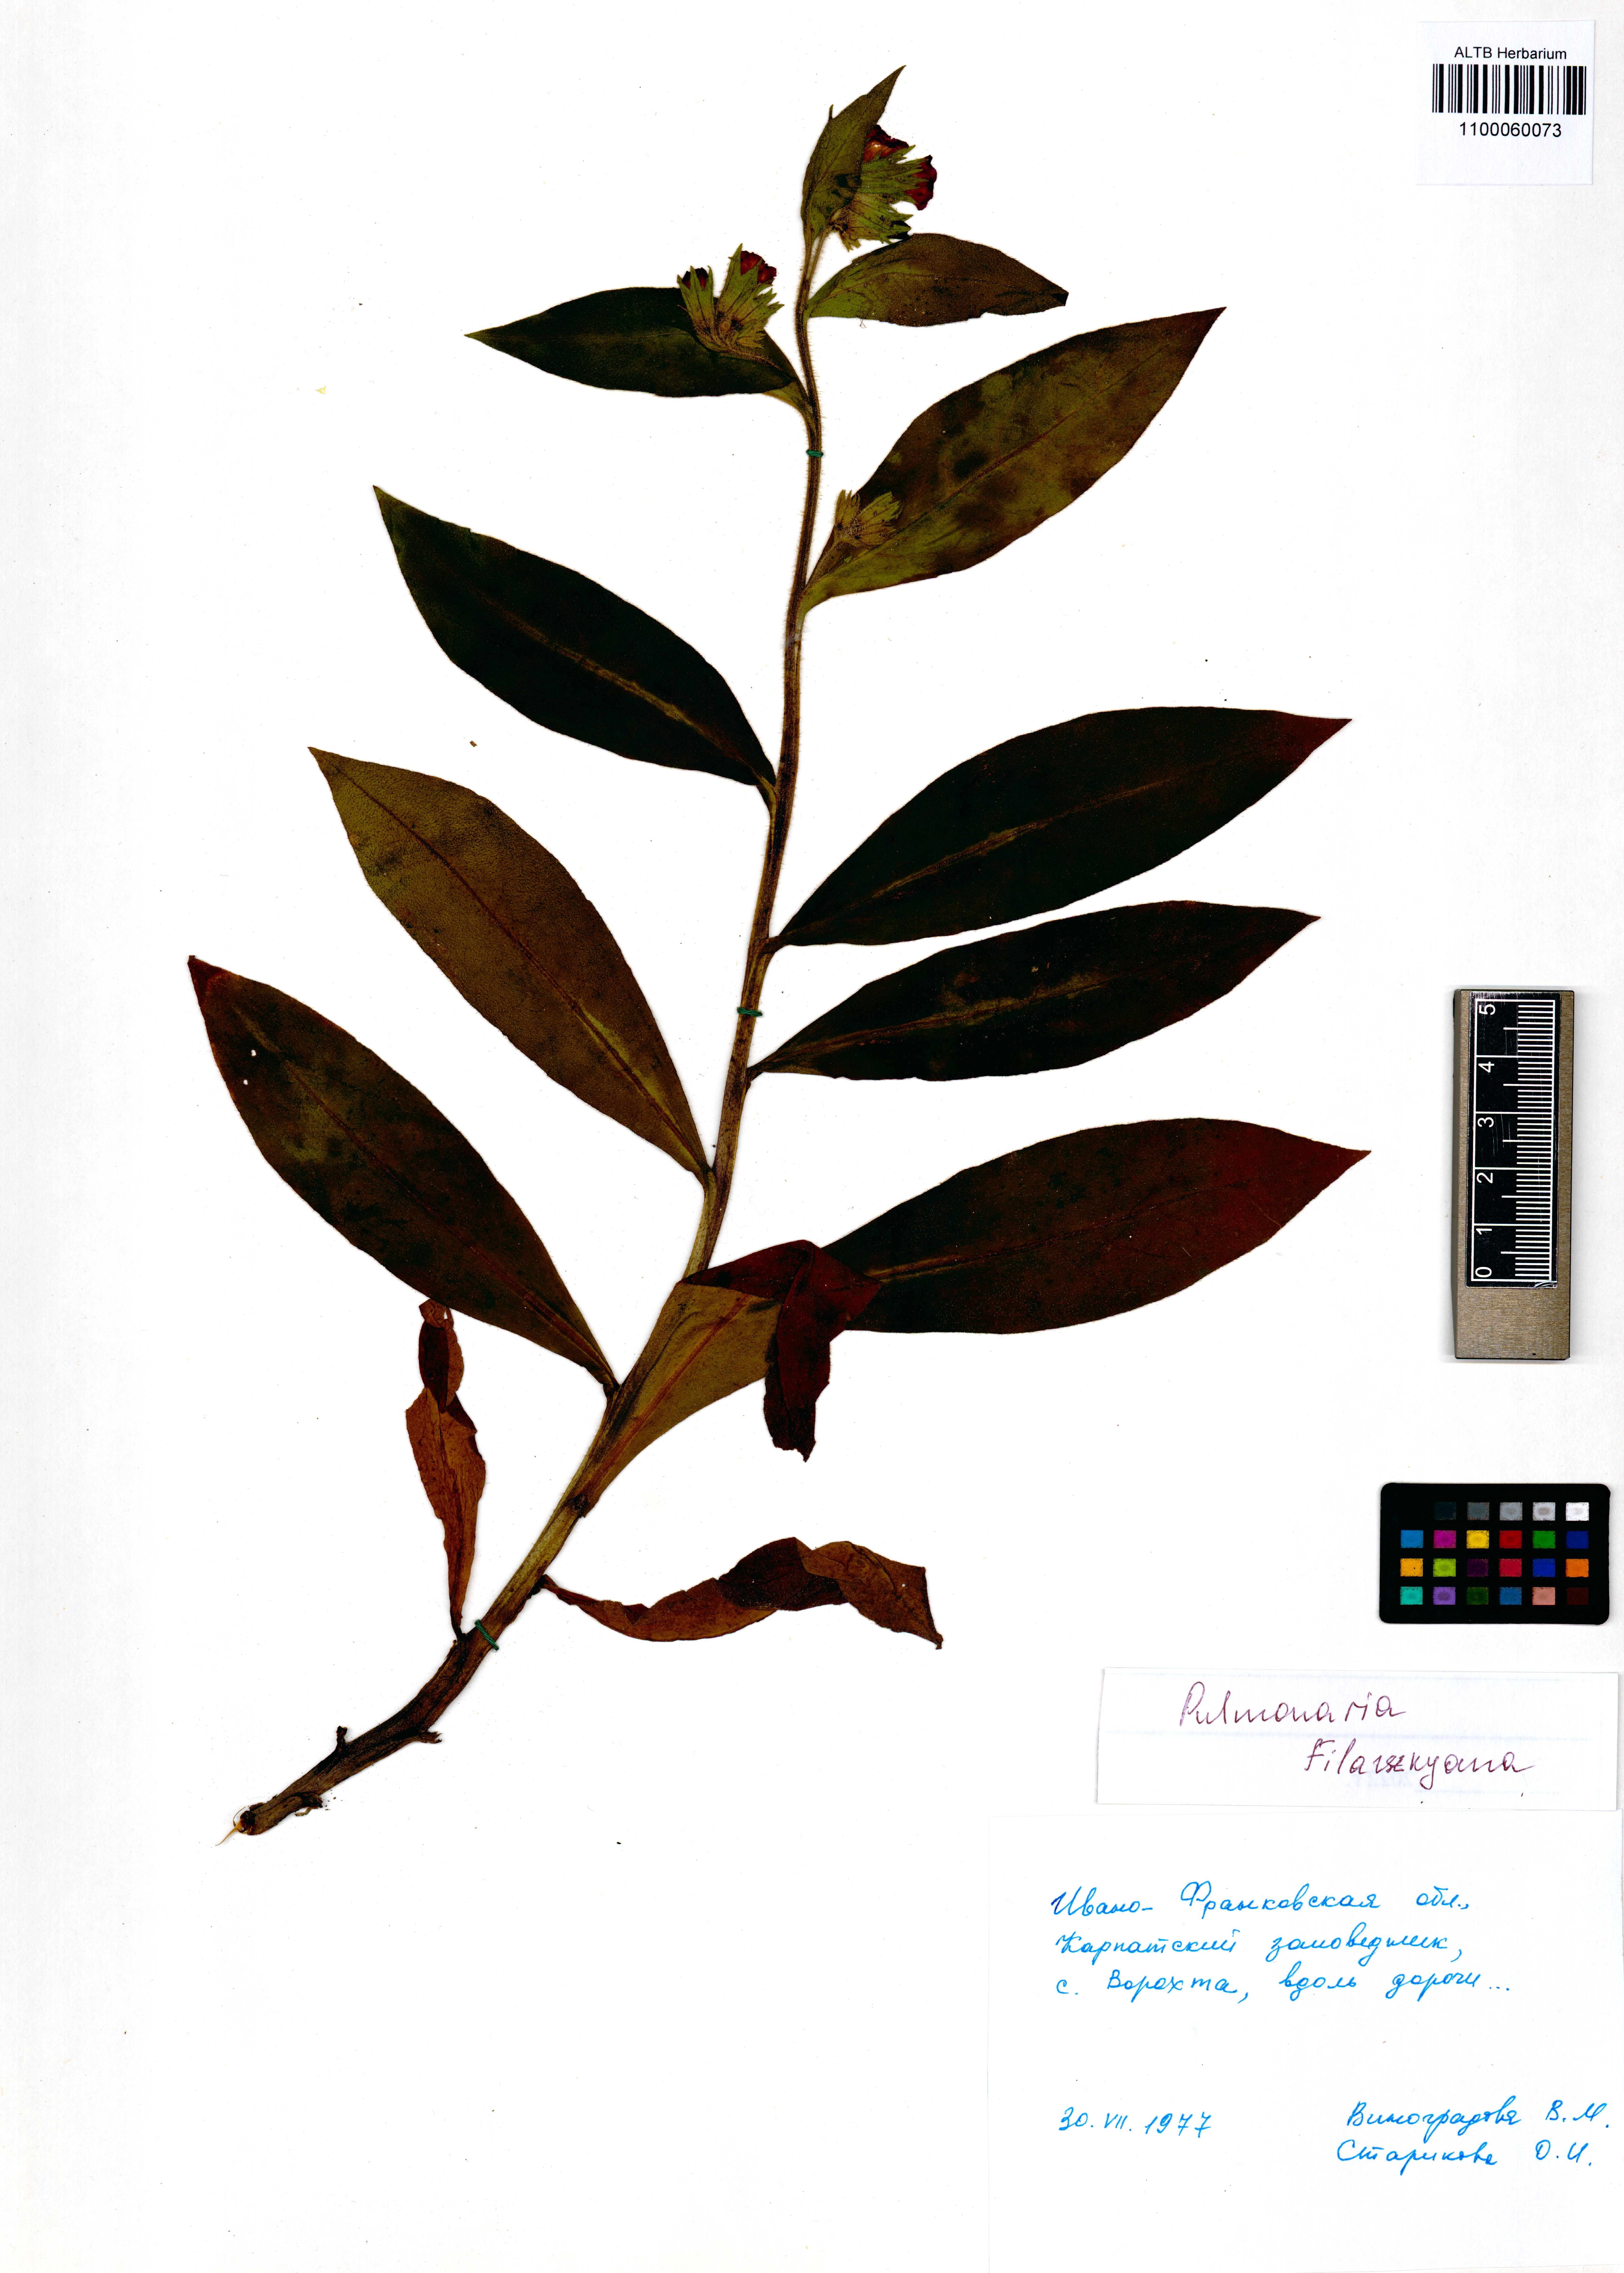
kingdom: Plantae
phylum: Tracheophyta
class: Magnoliopsida
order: Boraginales
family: Boraginaceae
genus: Pulmonaria
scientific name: Pulmonaria filarszkyana
